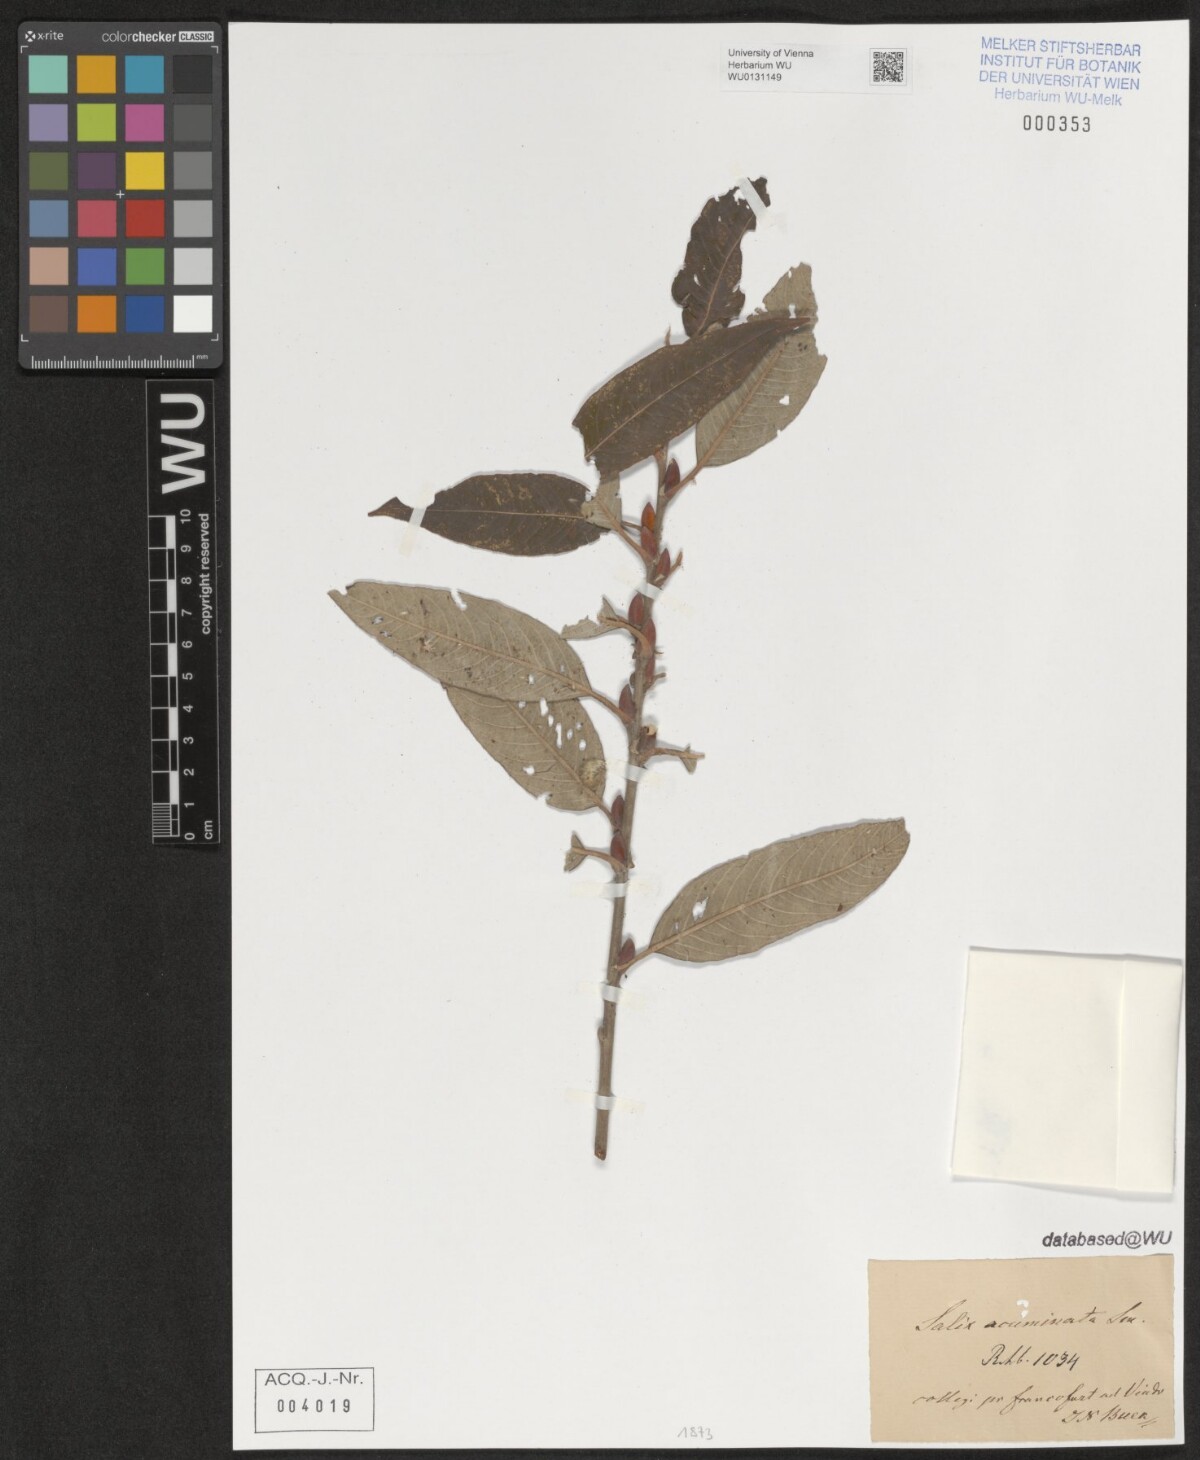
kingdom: Plantae
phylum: Tracheophyta
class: Magnoliopsida
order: Malpighiales
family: Salicaceae
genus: Salix
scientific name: Salix cinerea
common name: Common sallow
